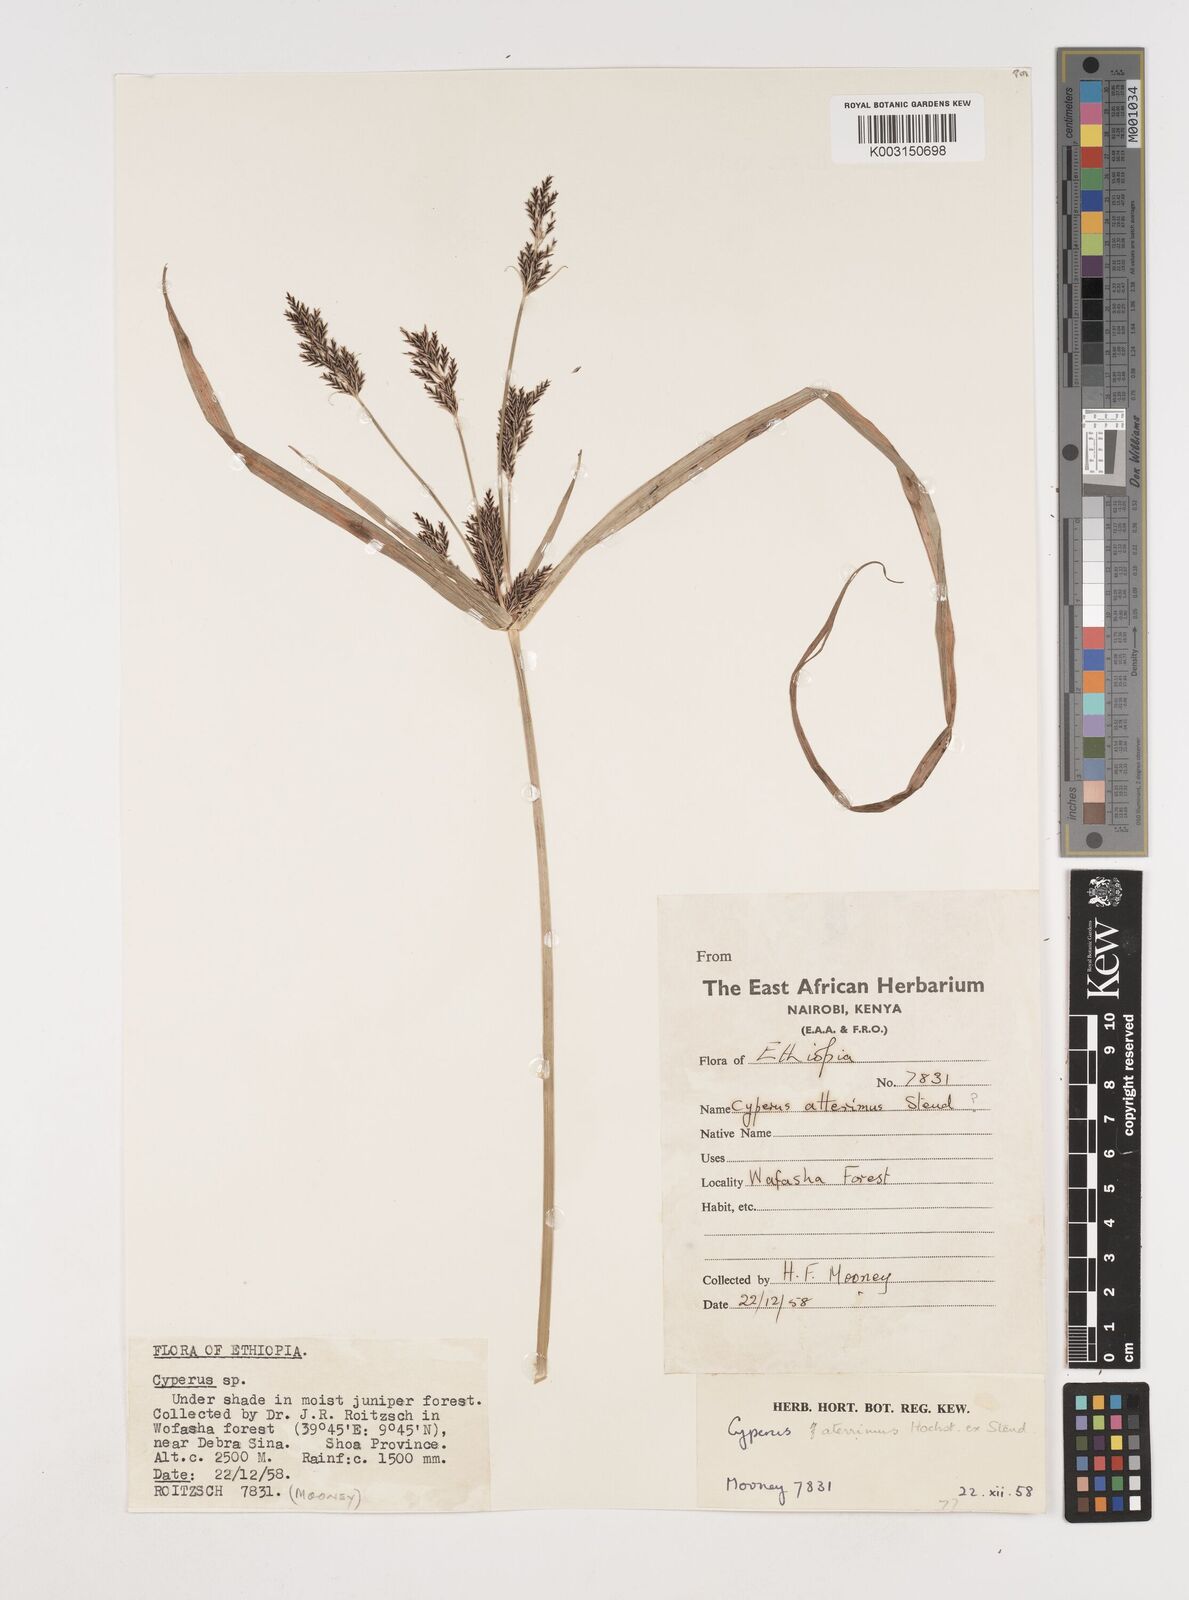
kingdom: Plantae
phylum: Tracheophyta
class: Liliopsida
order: Poales
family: Cyperaceae
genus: Cyperus
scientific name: Cyperus aterrimus
